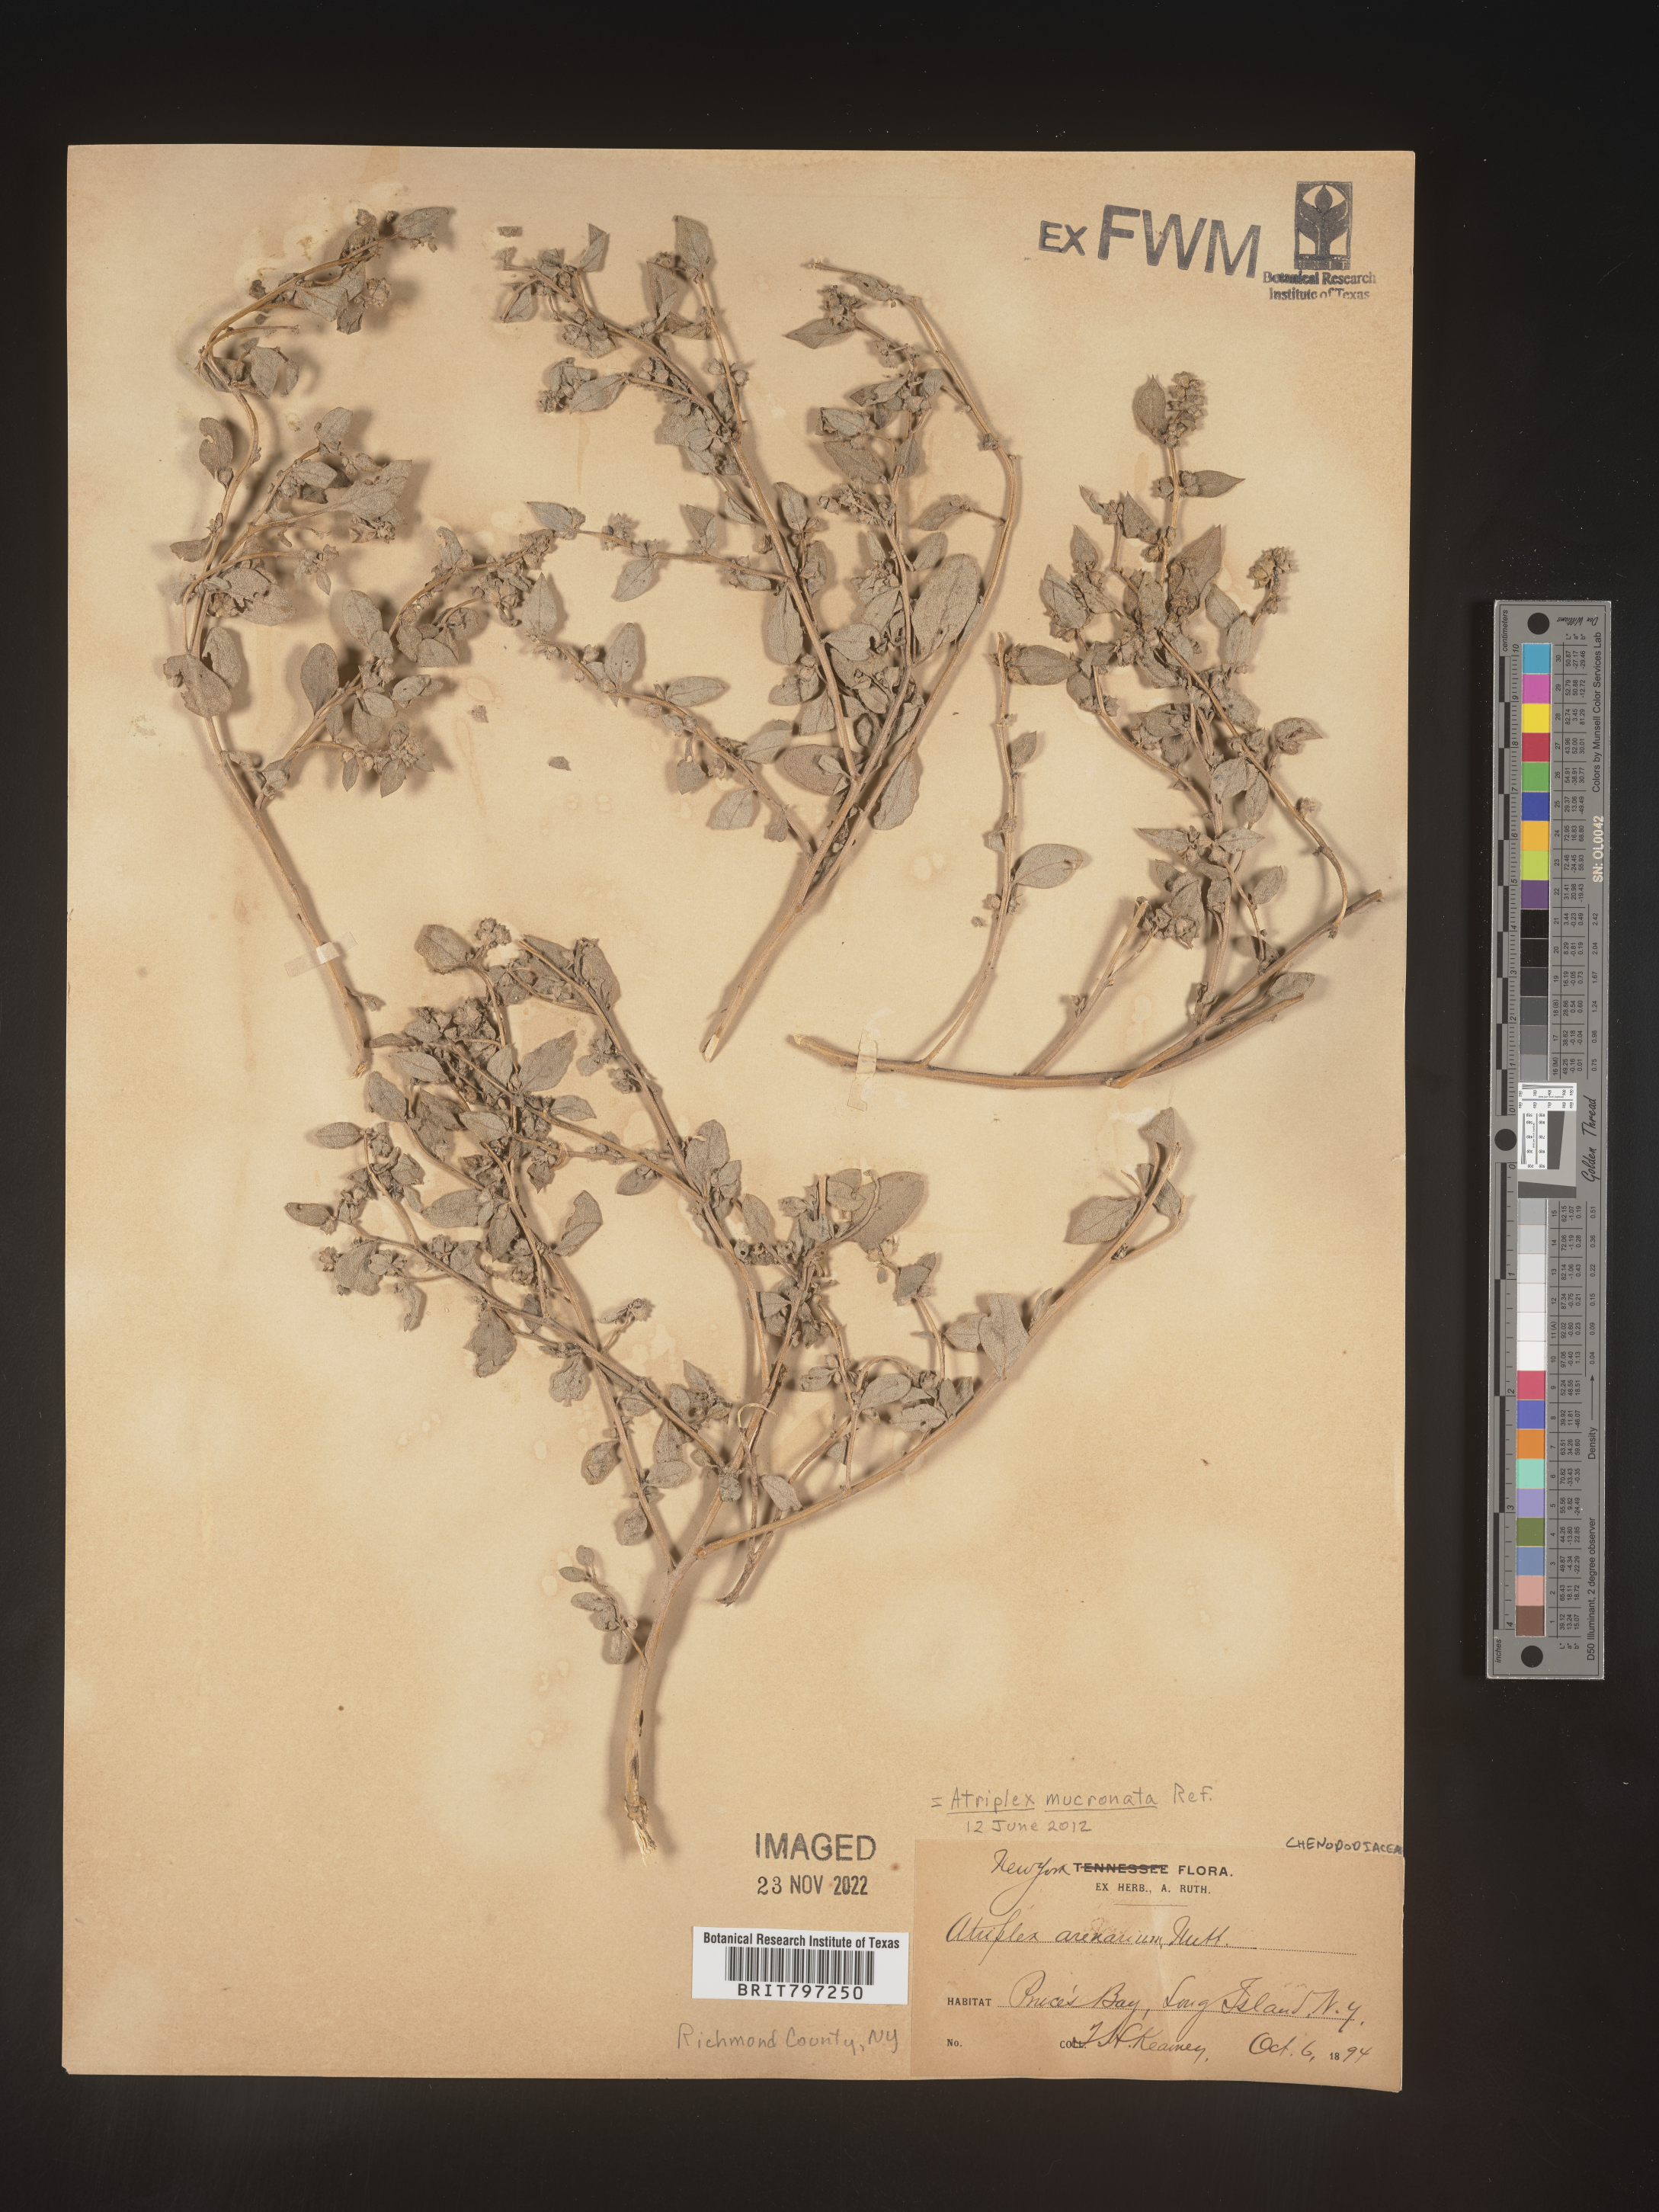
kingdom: Plantae
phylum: Tracheophyta
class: Magnoliopsida
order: Caryophyllales
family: Amaranthaceae
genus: Atriplex
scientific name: Atriplex
